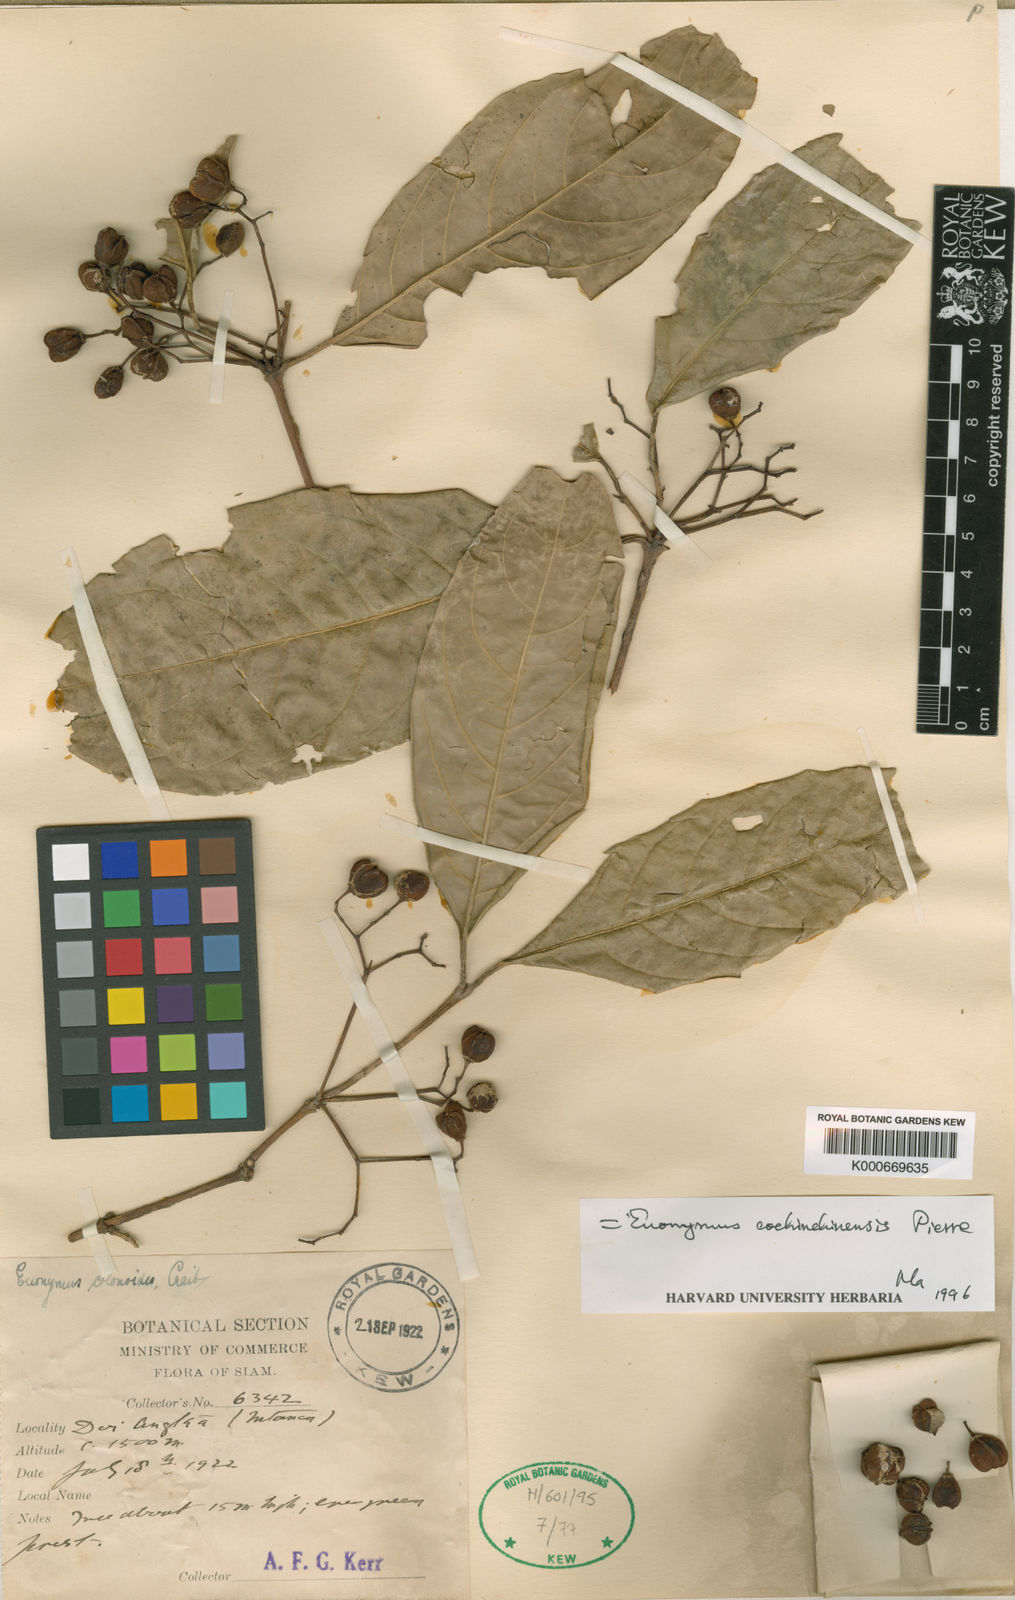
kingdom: Plantae
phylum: Tracheophyta
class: Magnoliopsida
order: Celastrales
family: Celastraceae
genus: Euonymus
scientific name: Euonymus cochinchinensis
